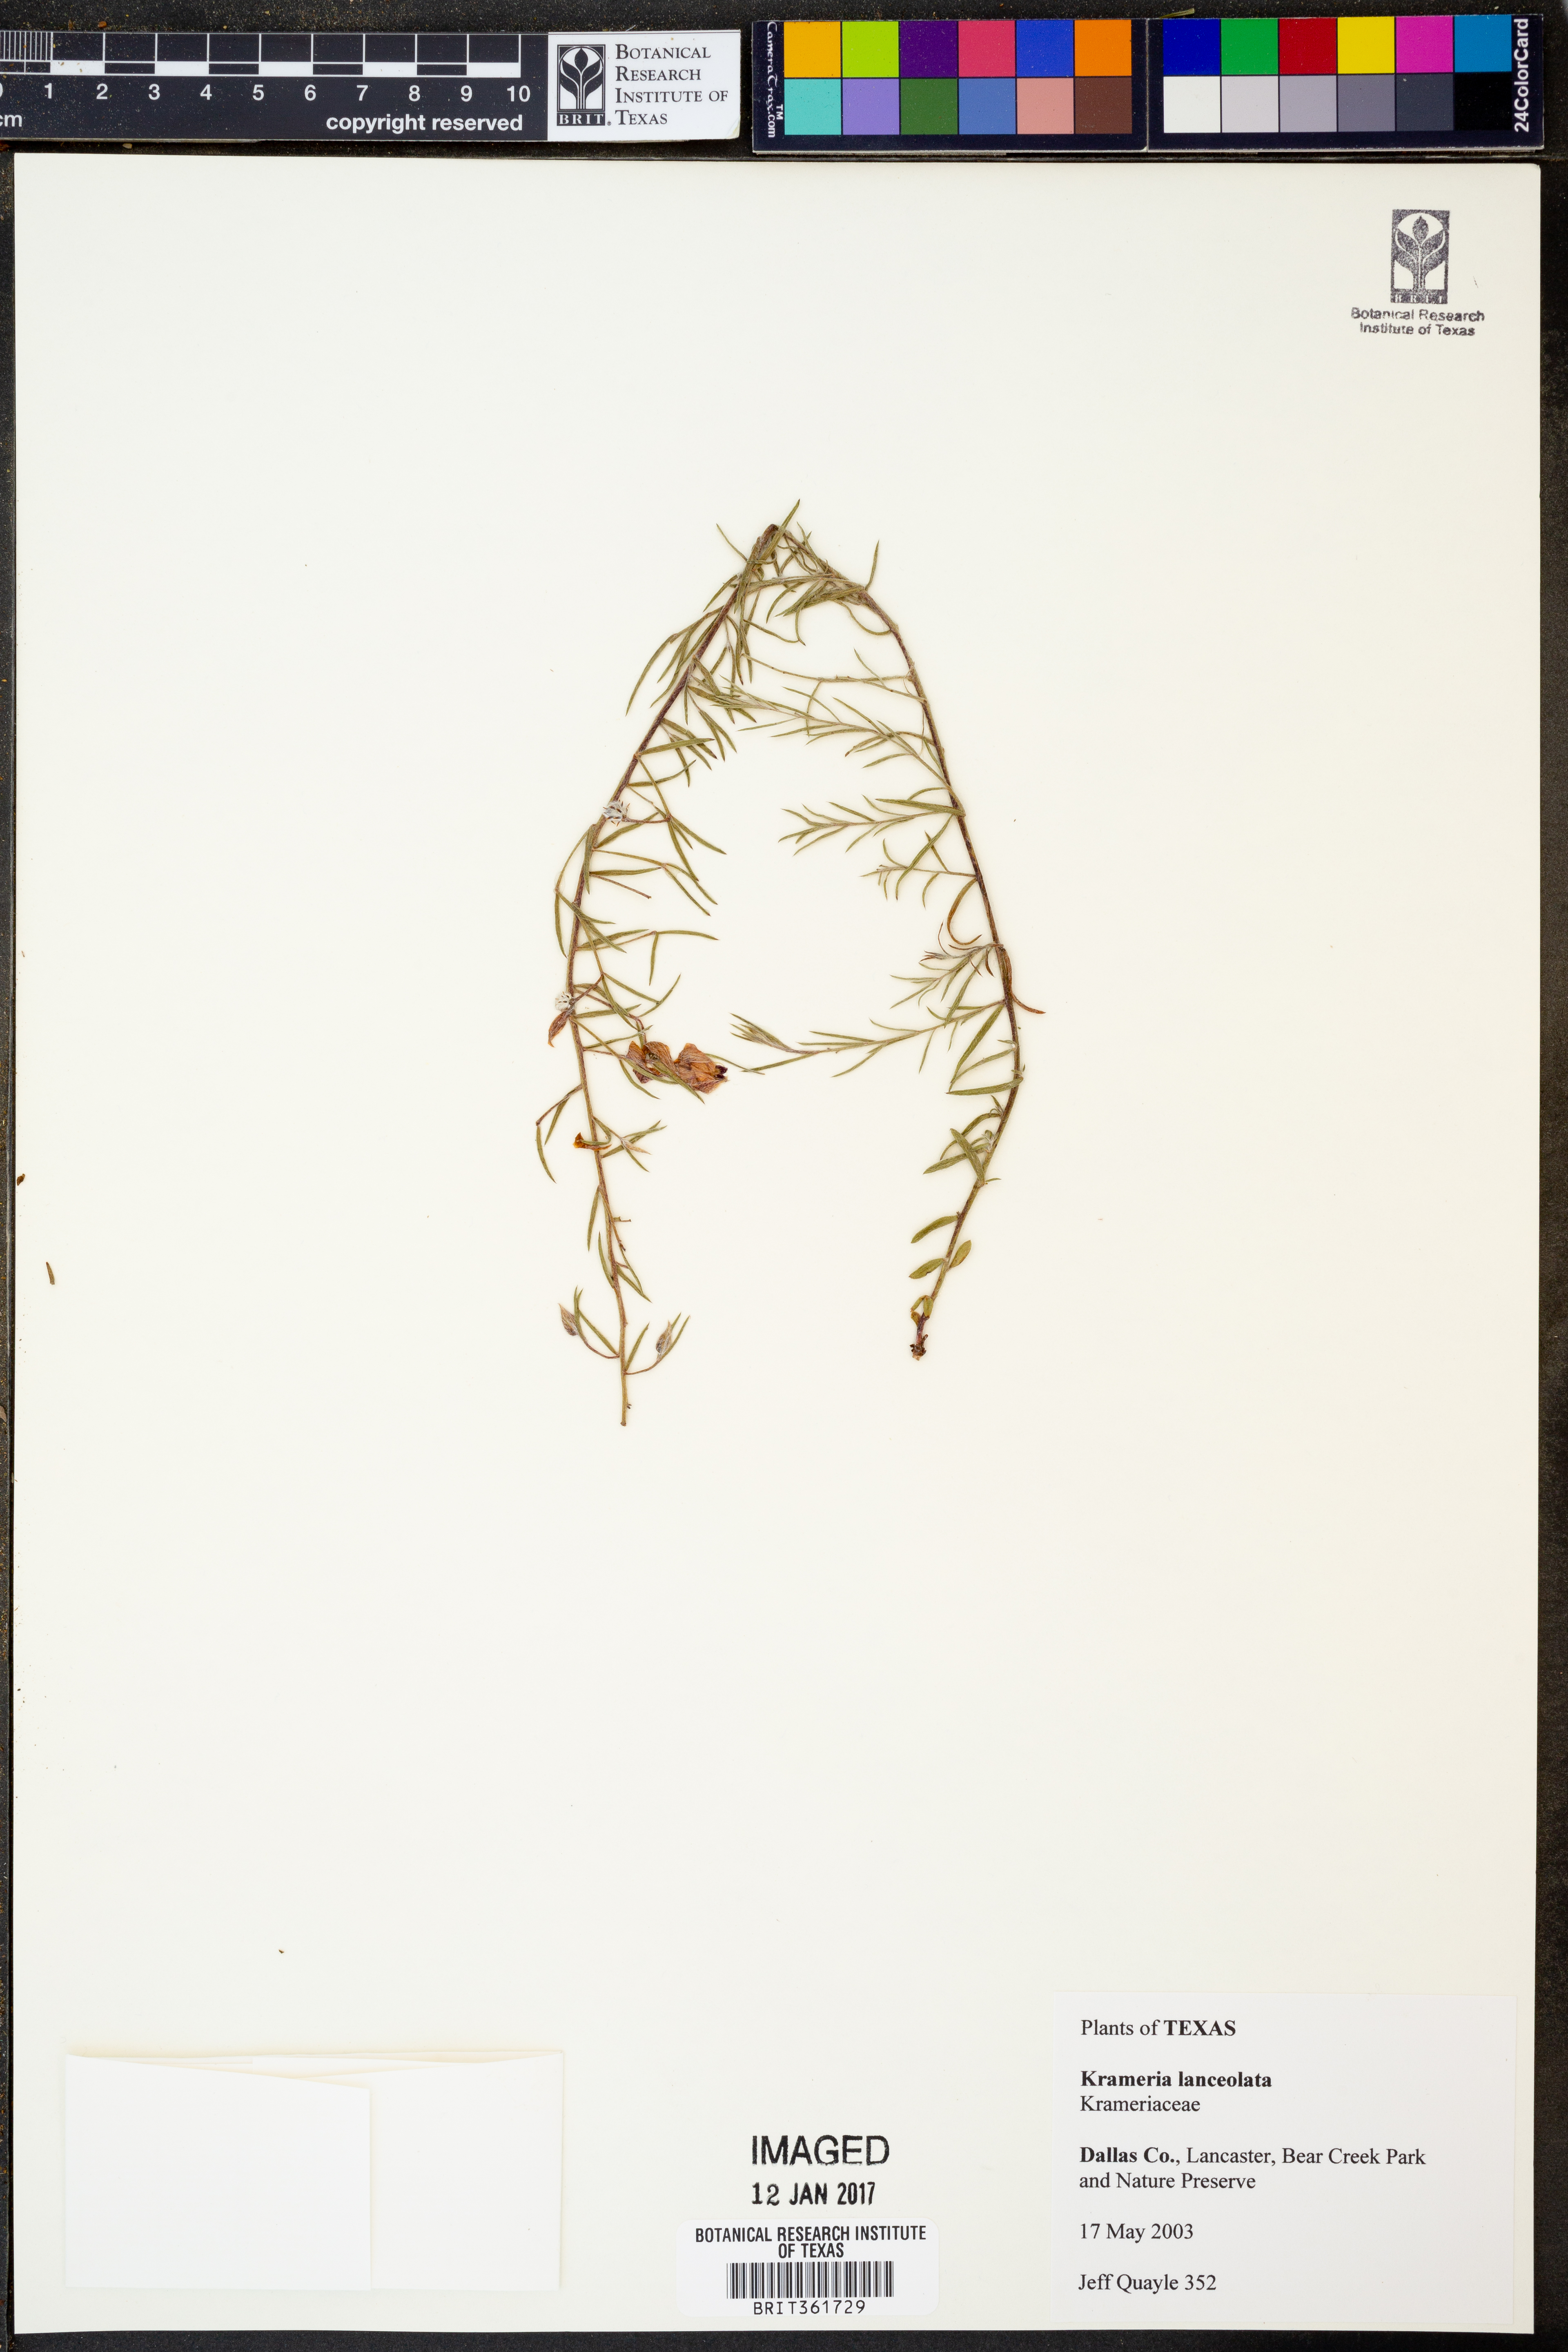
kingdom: Plantae
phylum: Tracheophyta
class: Magnoliopsida
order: Zygophyllales
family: Krameriaceae
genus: Krameria
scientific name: Krameria lanceolata
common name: Ratany
